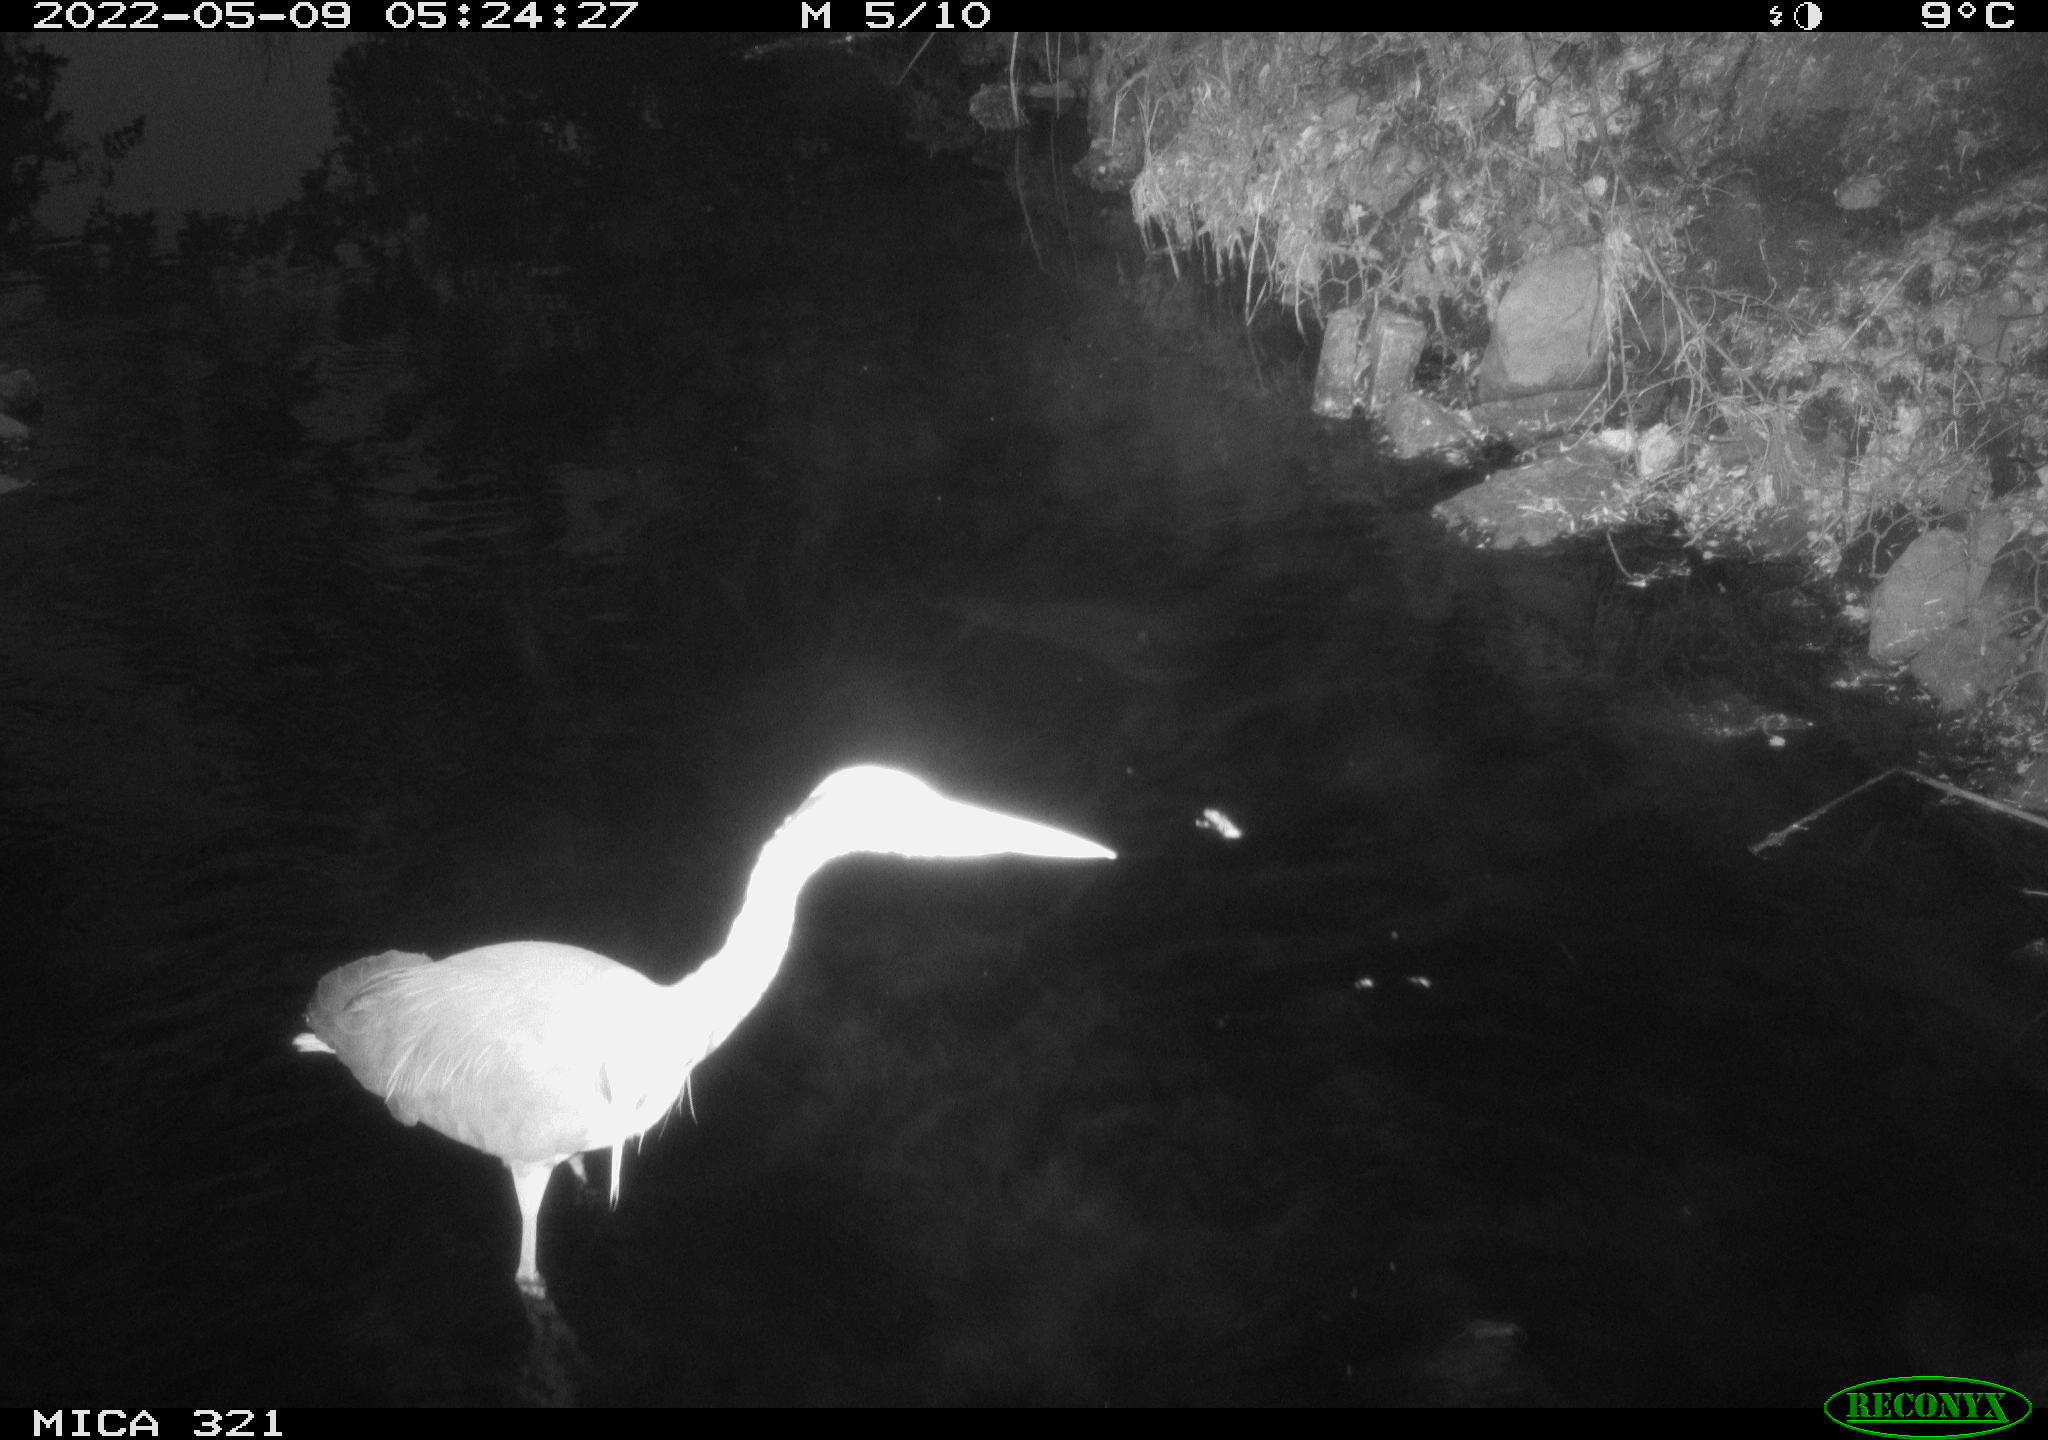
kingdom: Animalia
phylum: Chordata
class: Aves
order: Pelecaniformes
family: Ardeidae
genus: Ardea
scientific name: Ardea
